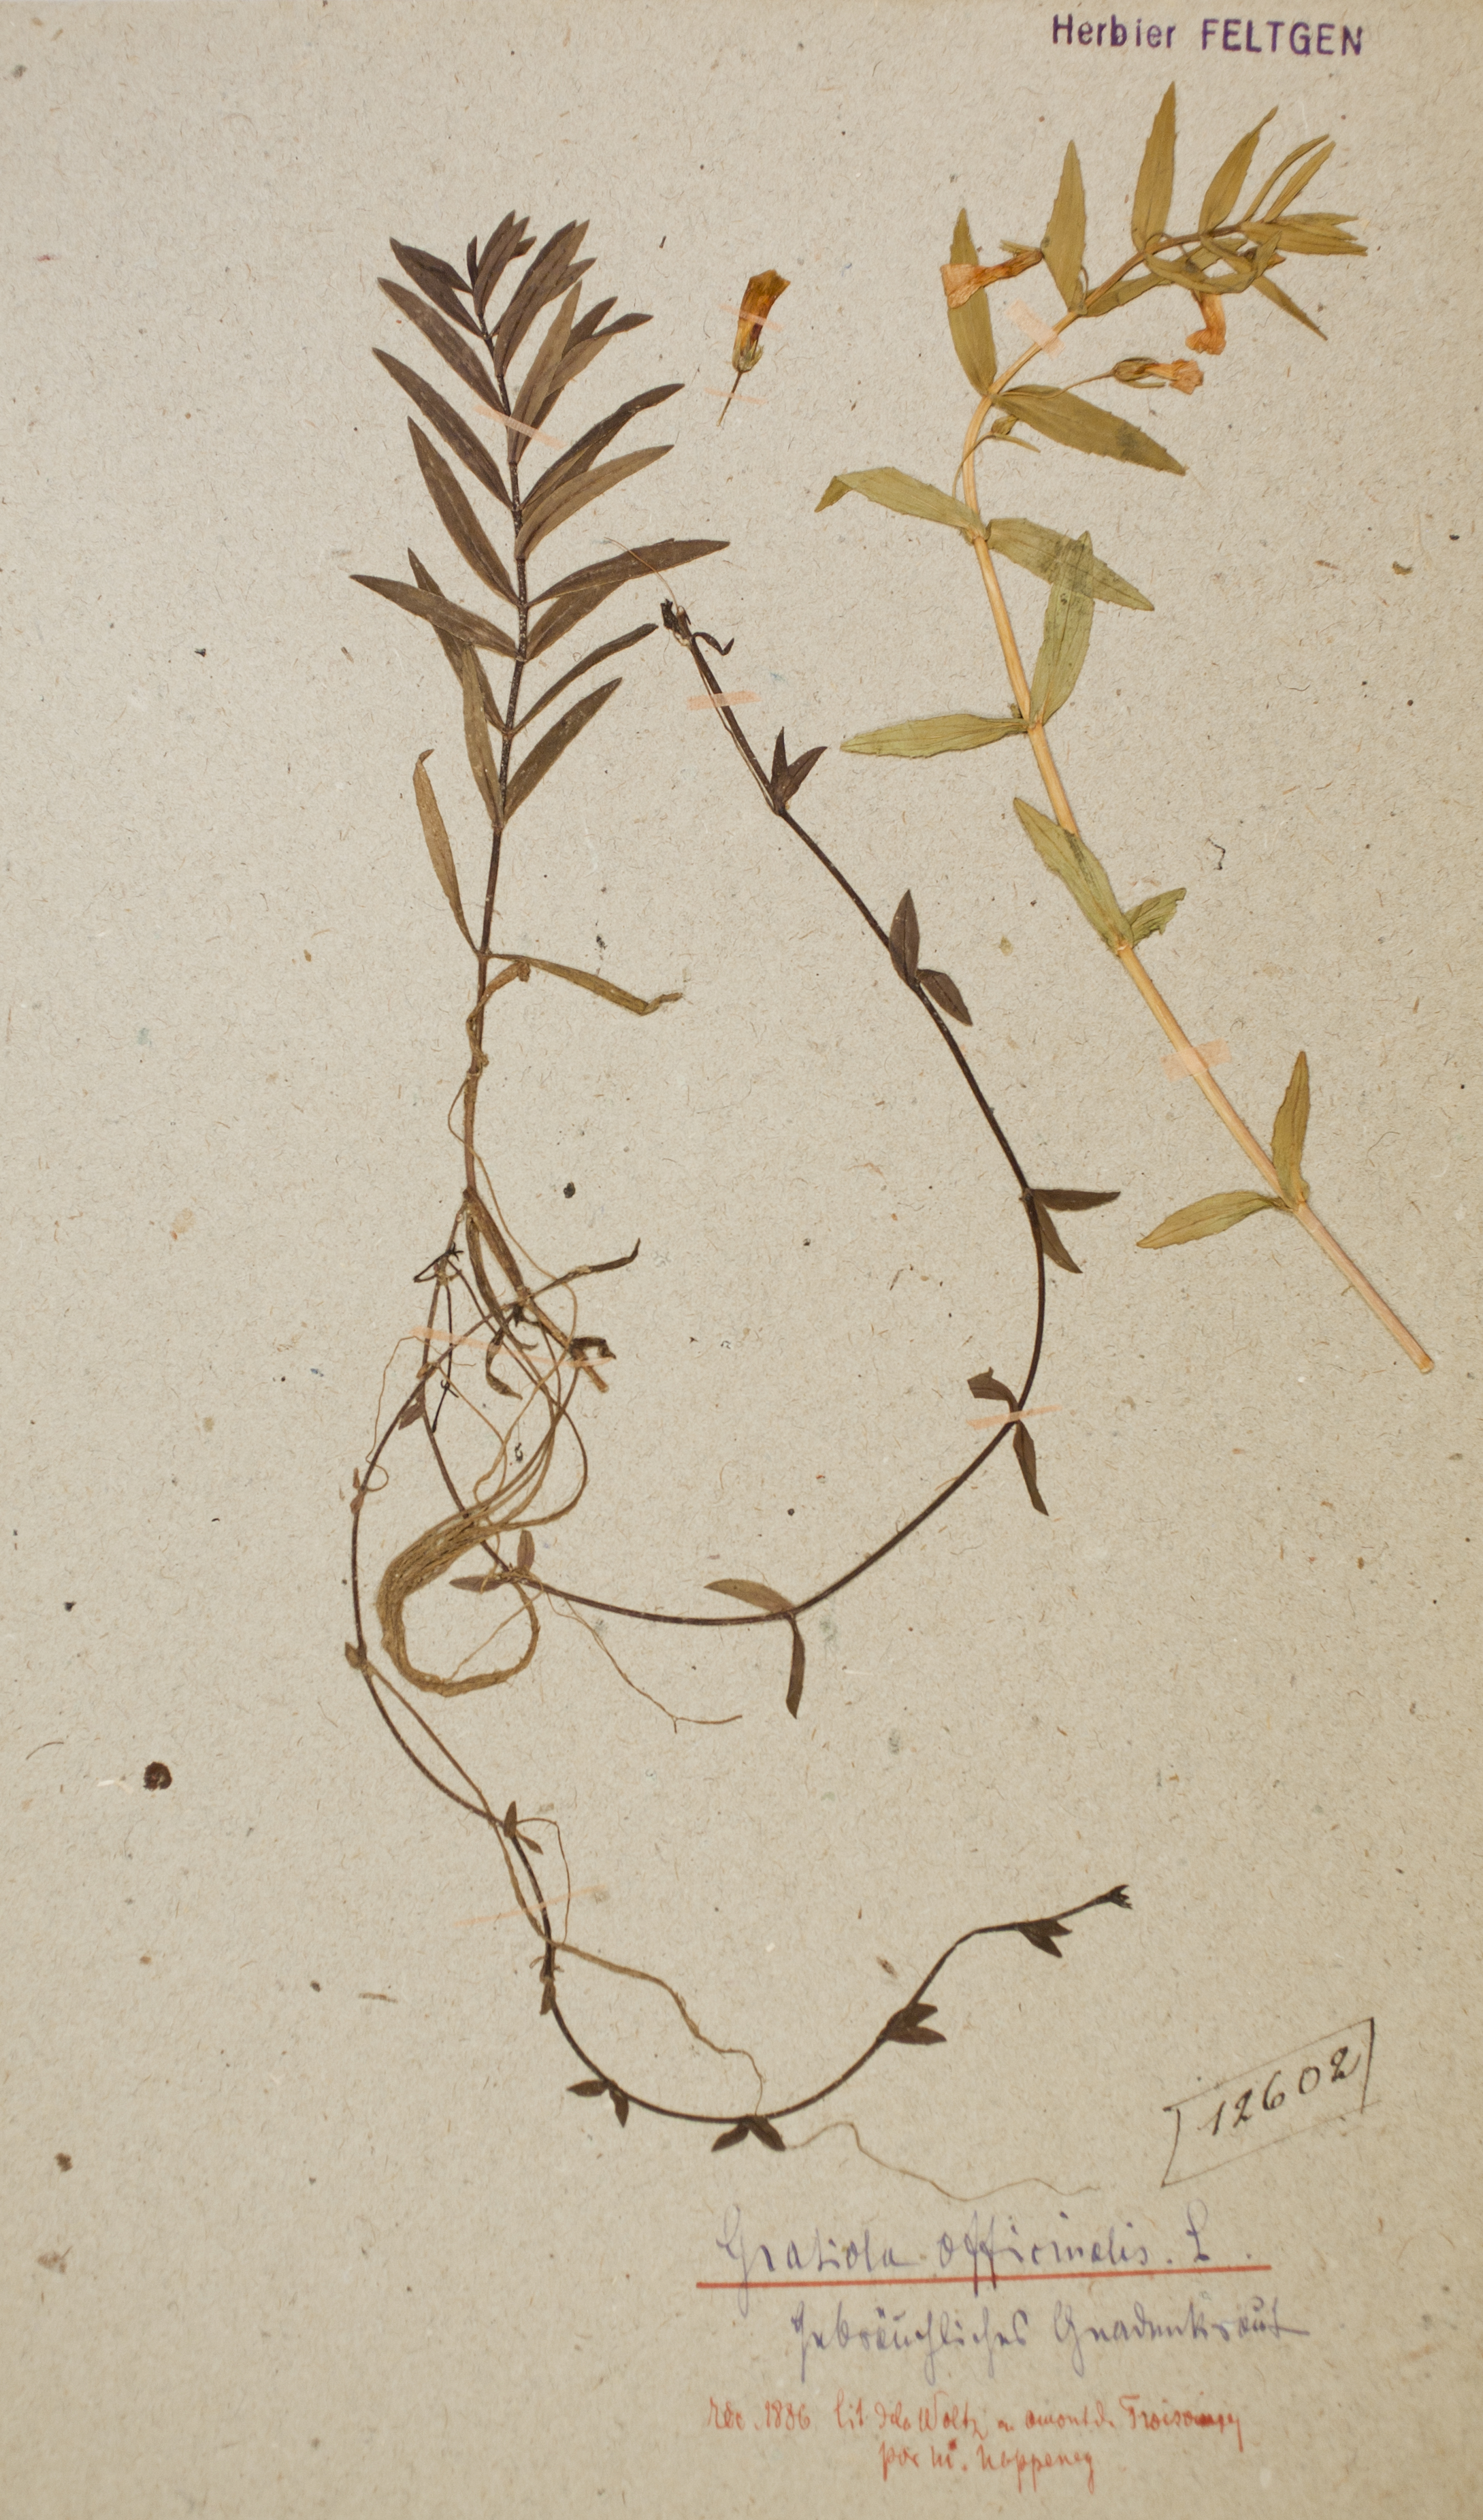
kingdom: Plantae
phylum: Tracheophyta
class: Magnoliopsida
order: Lamiales
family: Plantaginaceae
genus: Gratiola
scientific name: Gratiola officinalis
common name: Gratiola
